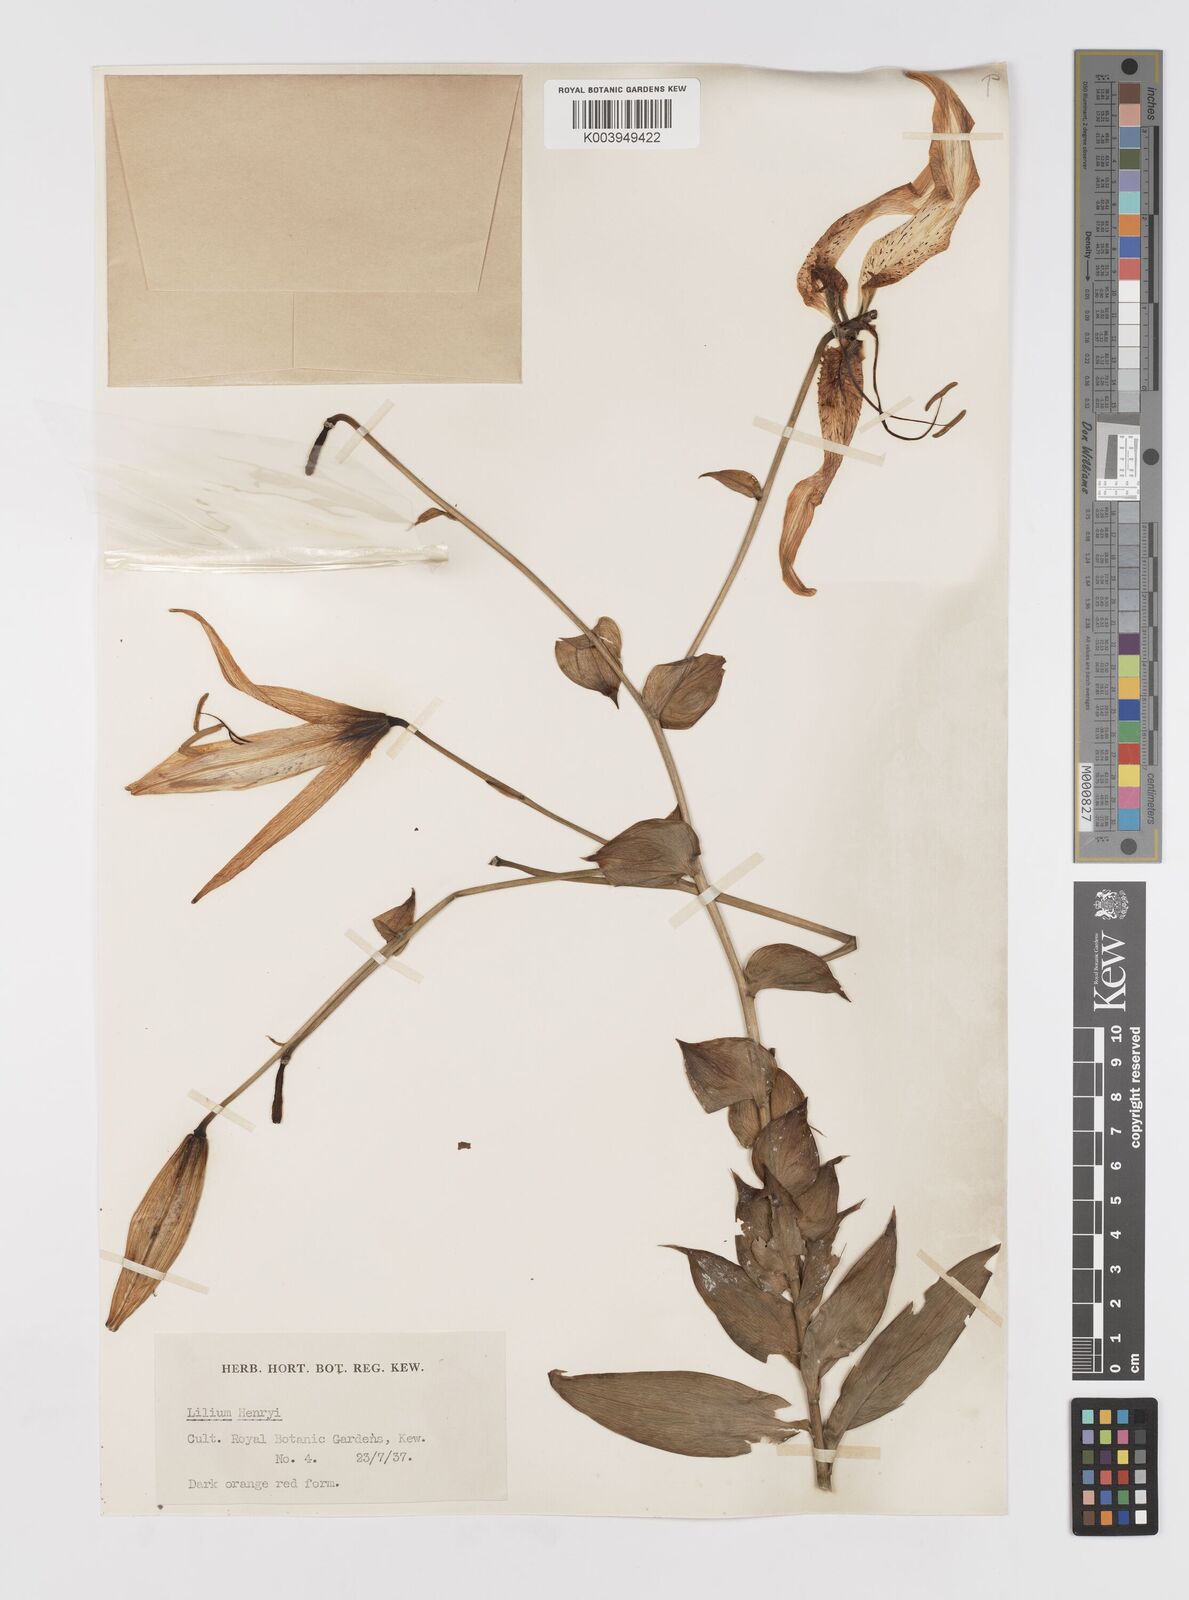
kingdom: Plantae
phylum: Tracheophyta
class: Liliopsida
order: Liliales
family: Liliaceae
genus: Lilium
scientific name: Lilium henryi
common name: Henry's lily
